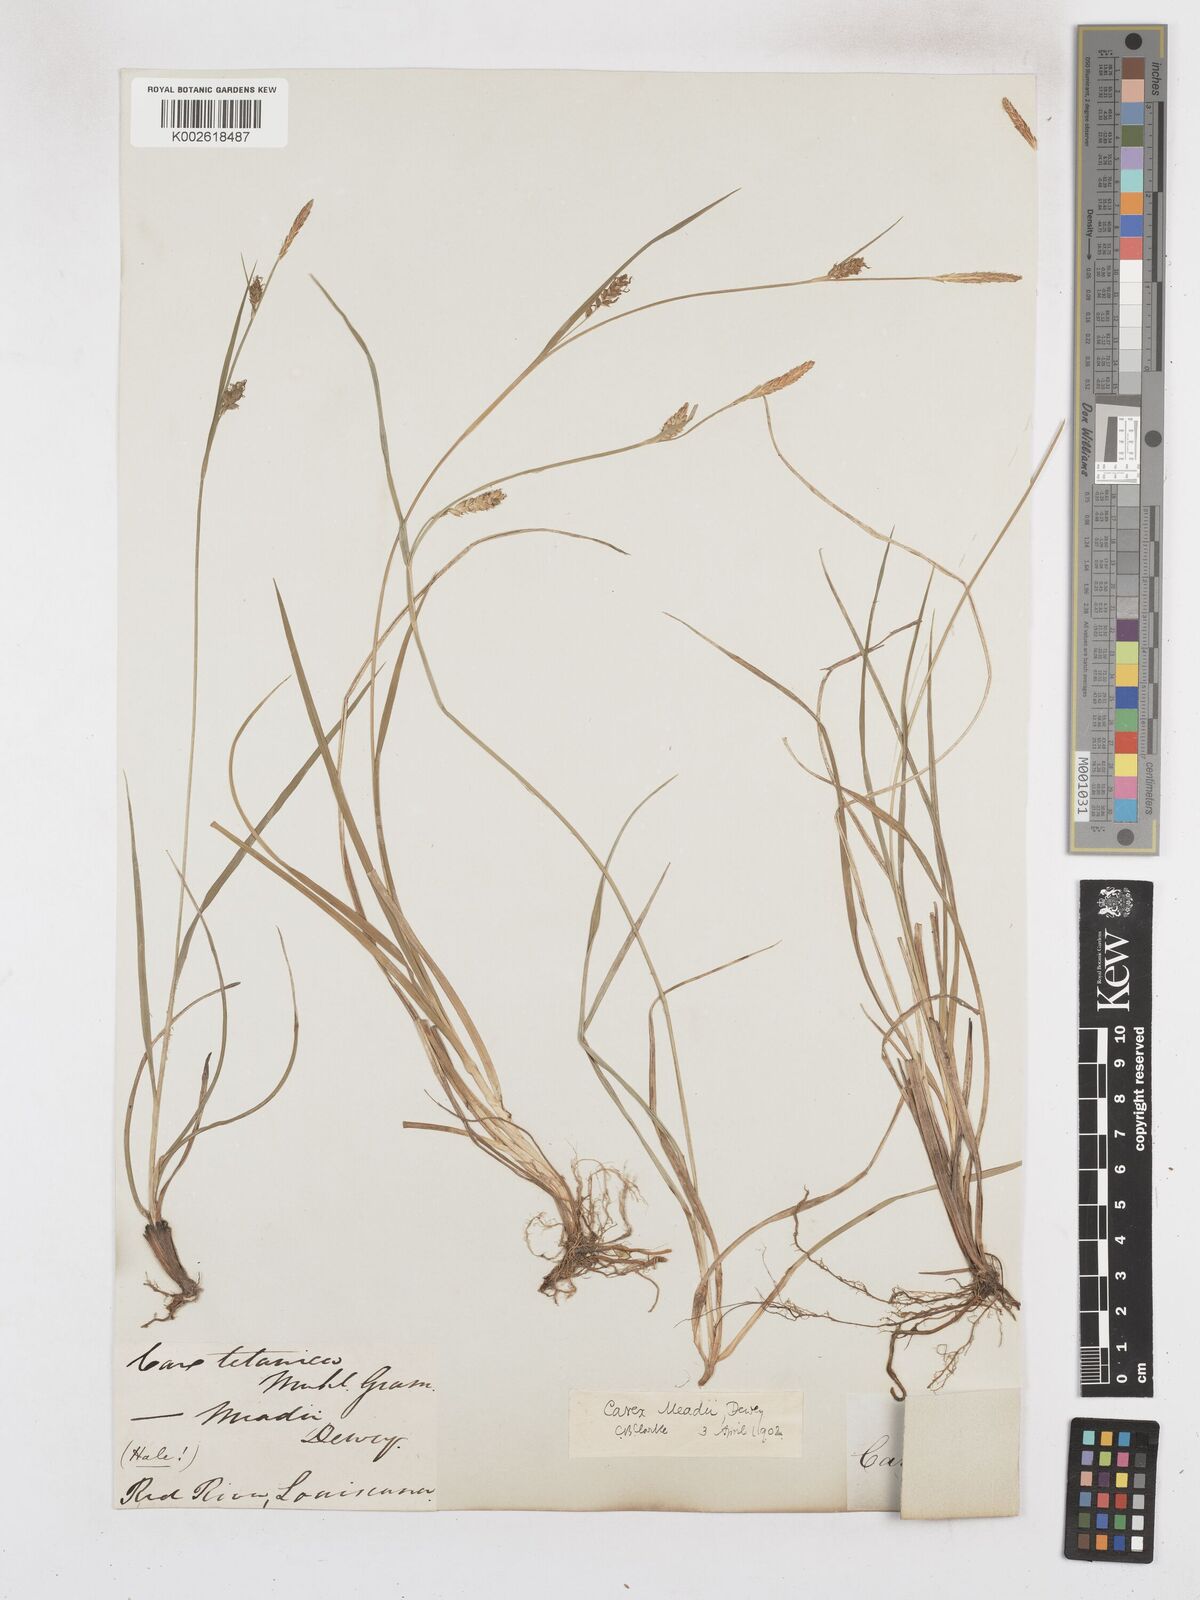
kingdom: Plantae
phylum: Tracheophyta
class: Liliopsida
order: Poales
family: Cyperaceae
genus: Carex
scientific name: Carex meadii
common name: Mead's sedge
